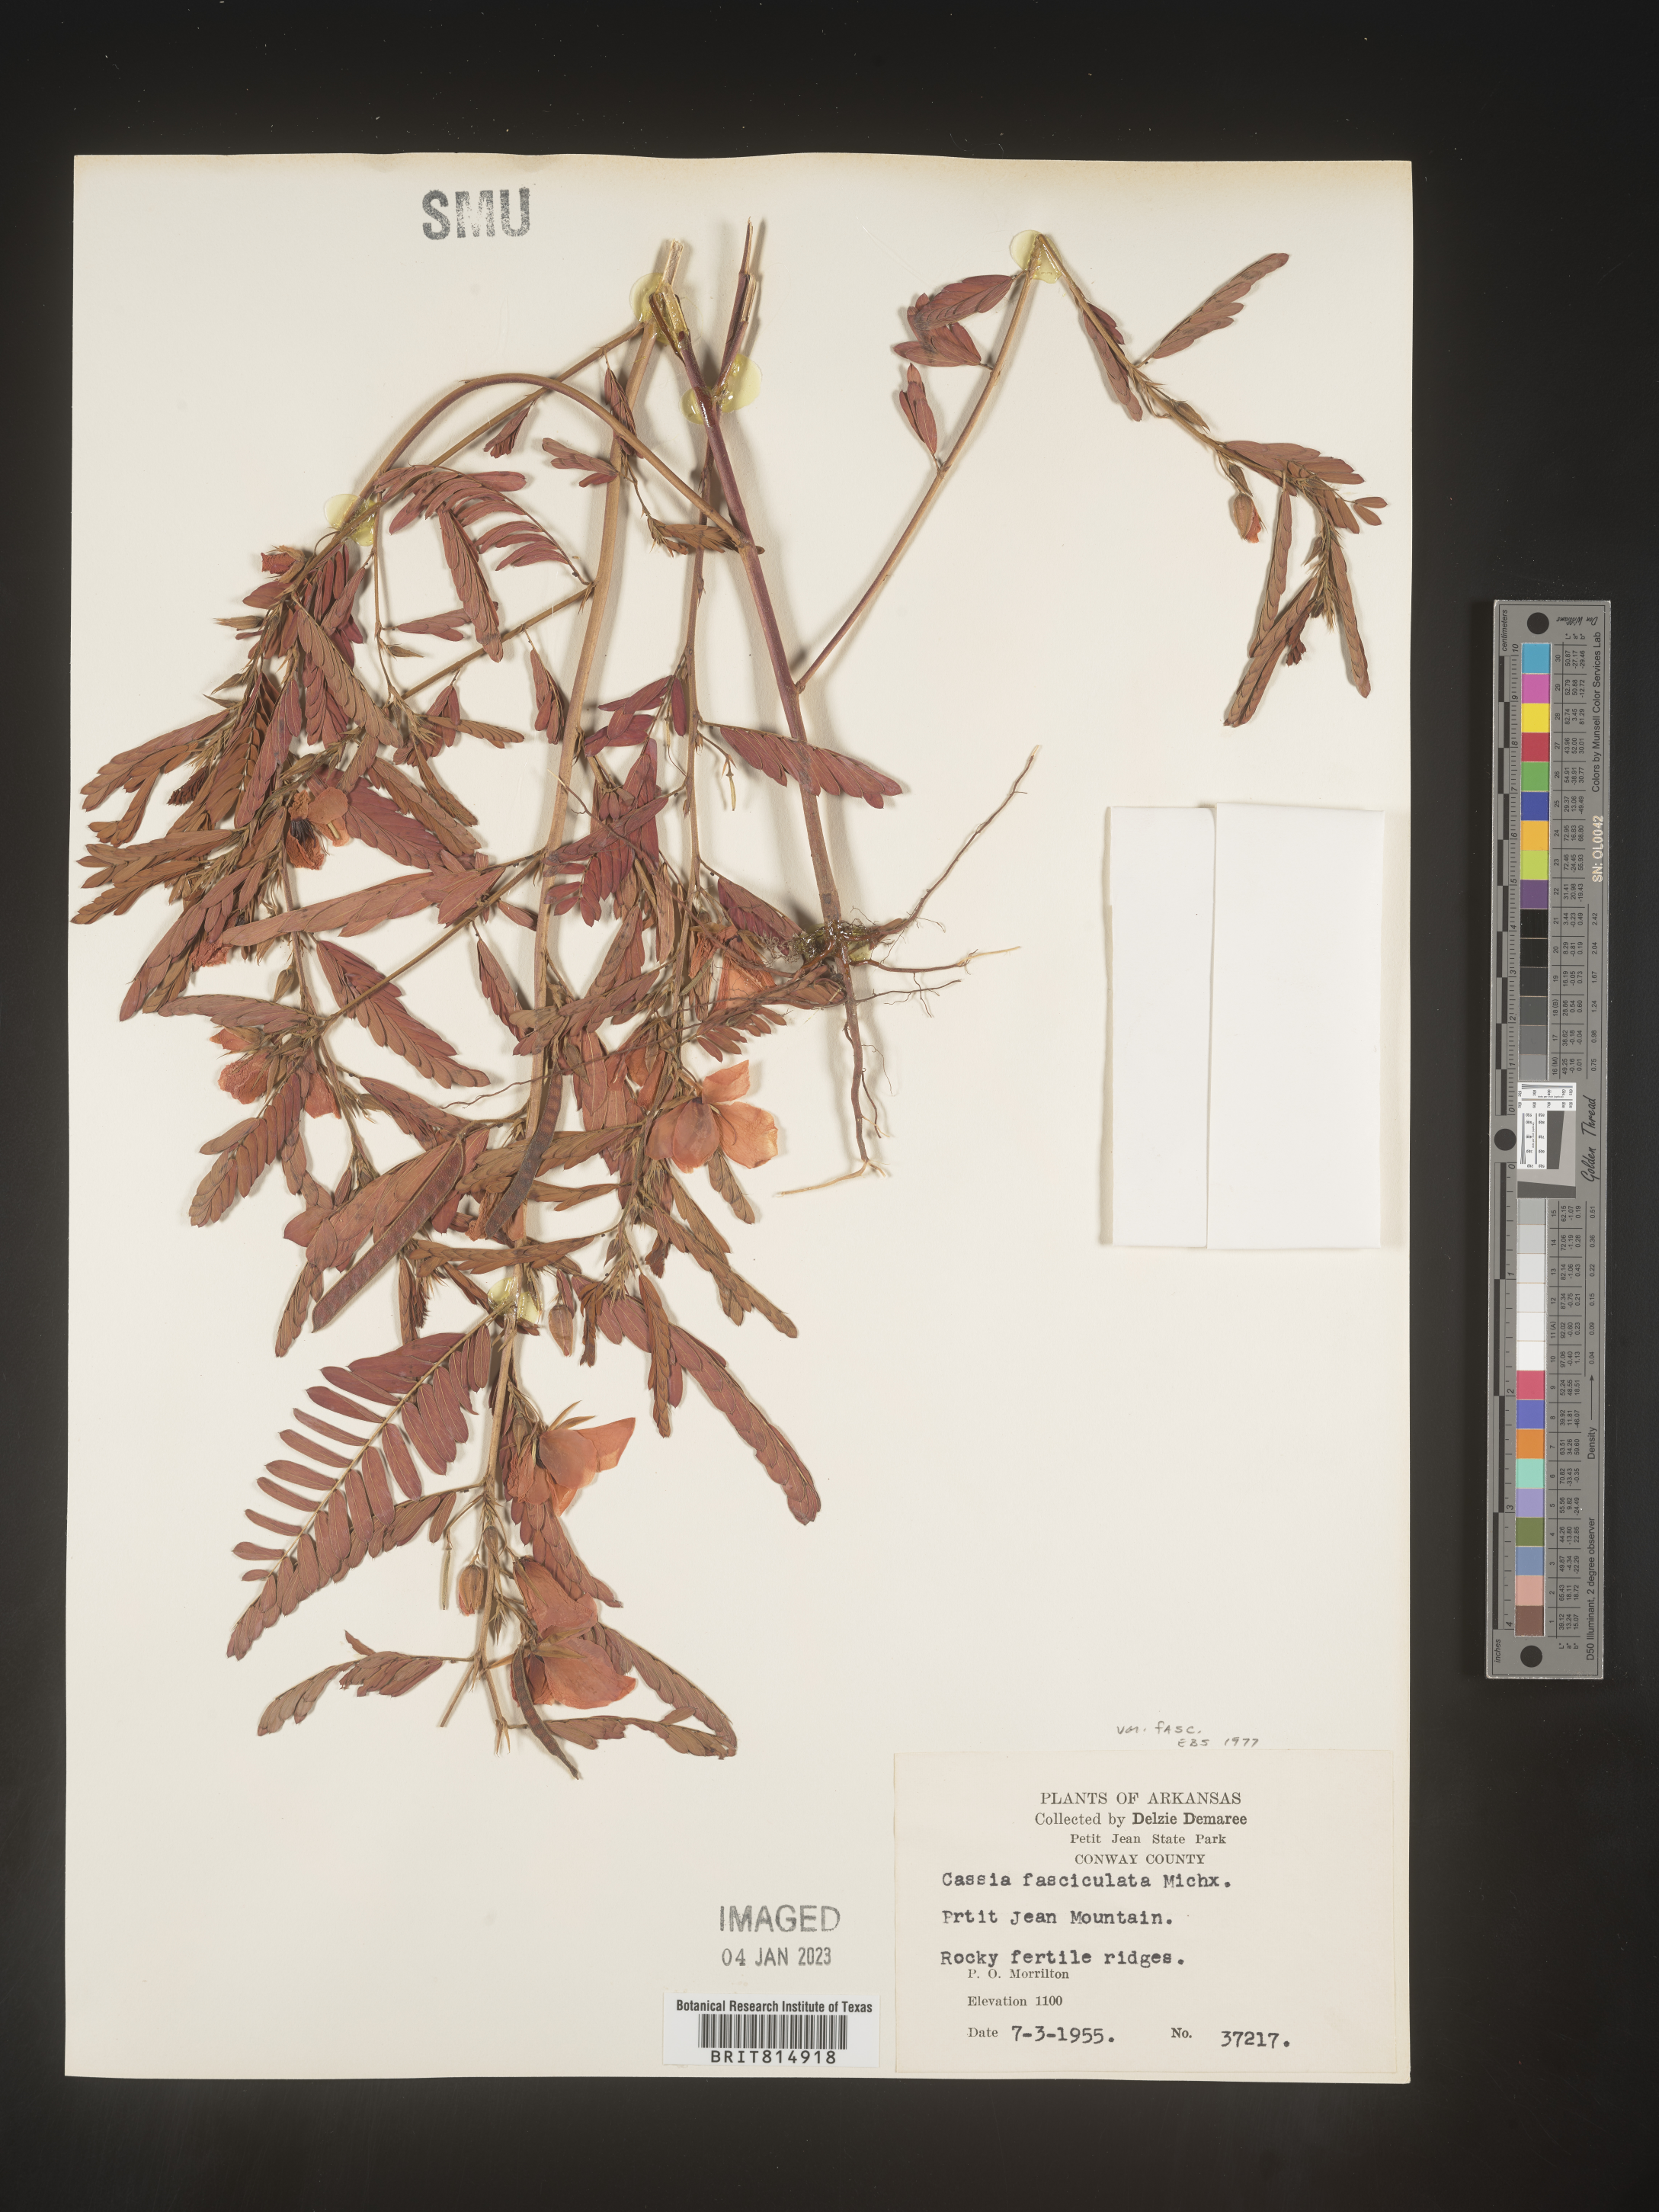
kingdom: Plantae
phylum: Tracheophyta
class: Magnoliopsida
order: Fabales
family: Fabaceae
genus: Chamaecrista
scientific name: Chamaecrista fasciculata
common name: Golden cassia
